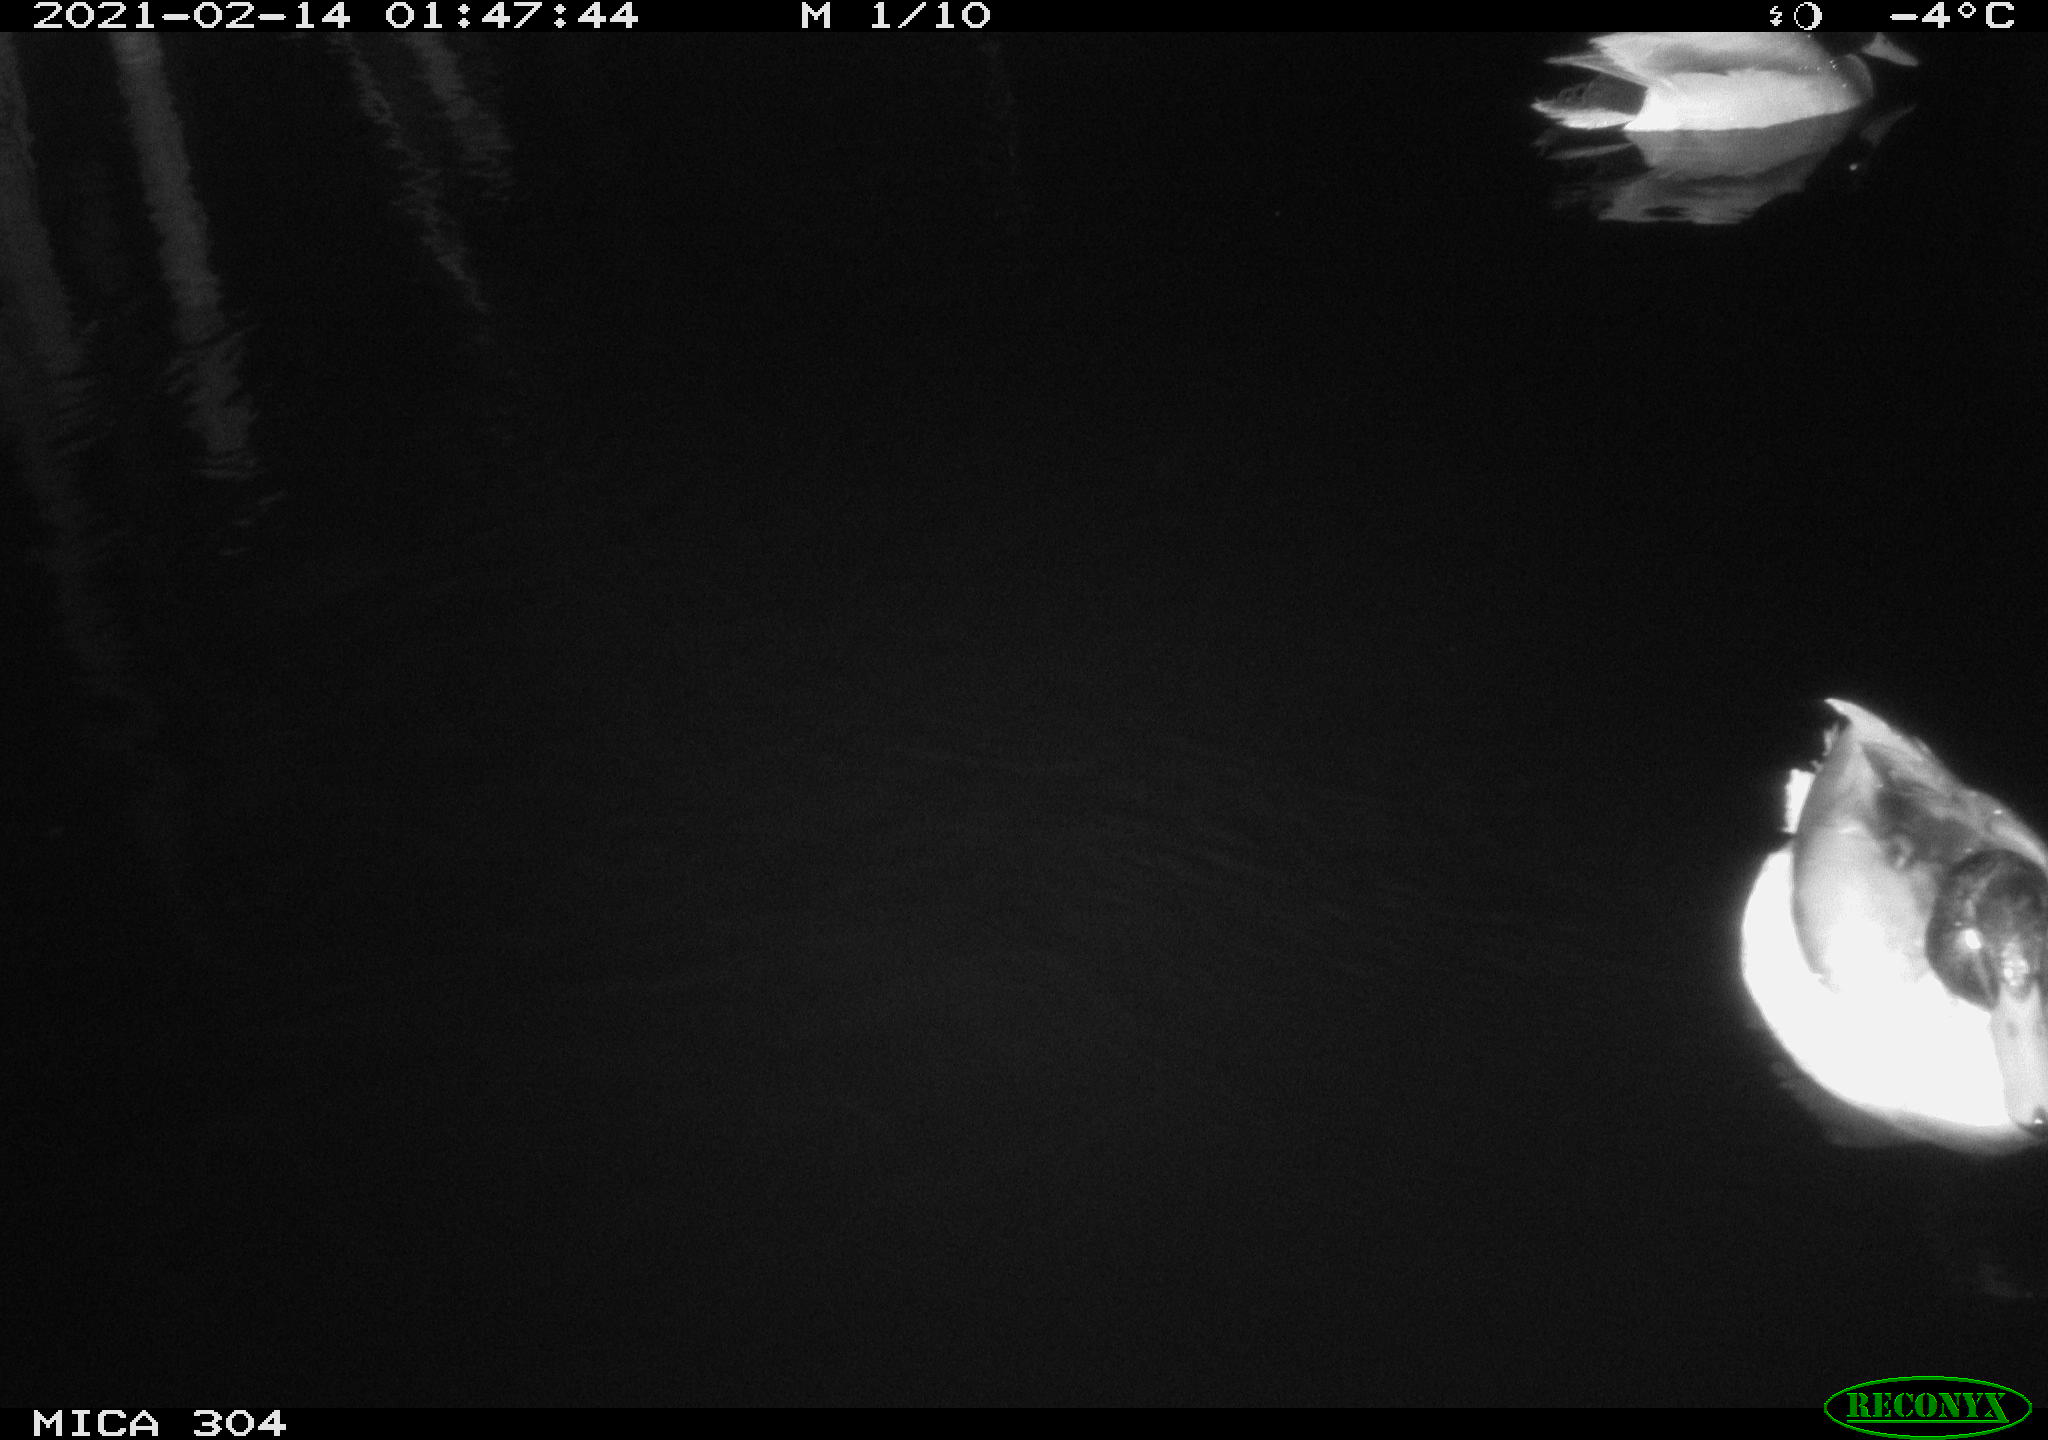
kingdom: Animalia
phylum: Chordata
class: Aves
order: Anseriformes
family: Anatidae
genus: Anas
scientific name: Anas platyrhynchos
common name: Mallard
